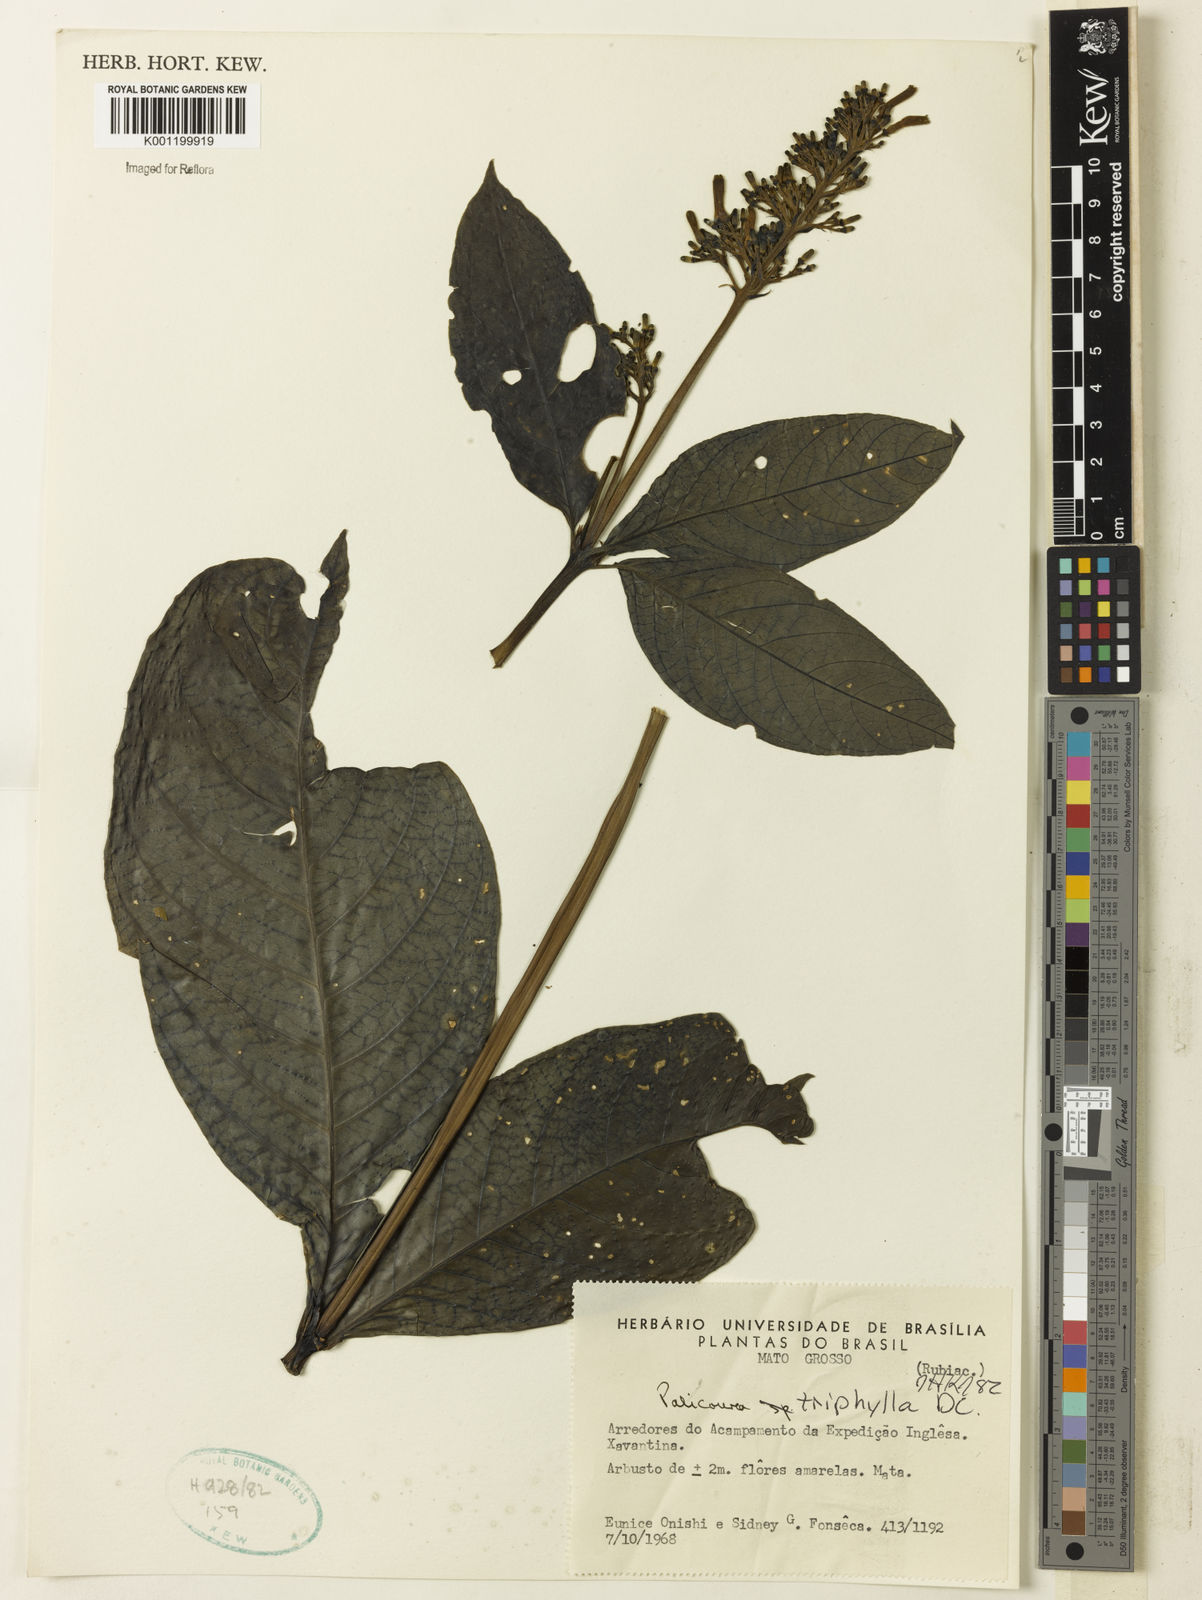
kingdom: Plantae
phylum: Tracheophyta
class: Magnoliopsida
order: Gentianales
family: Rubiaceae
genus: Palicourea
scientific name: Palicourea triphylla
